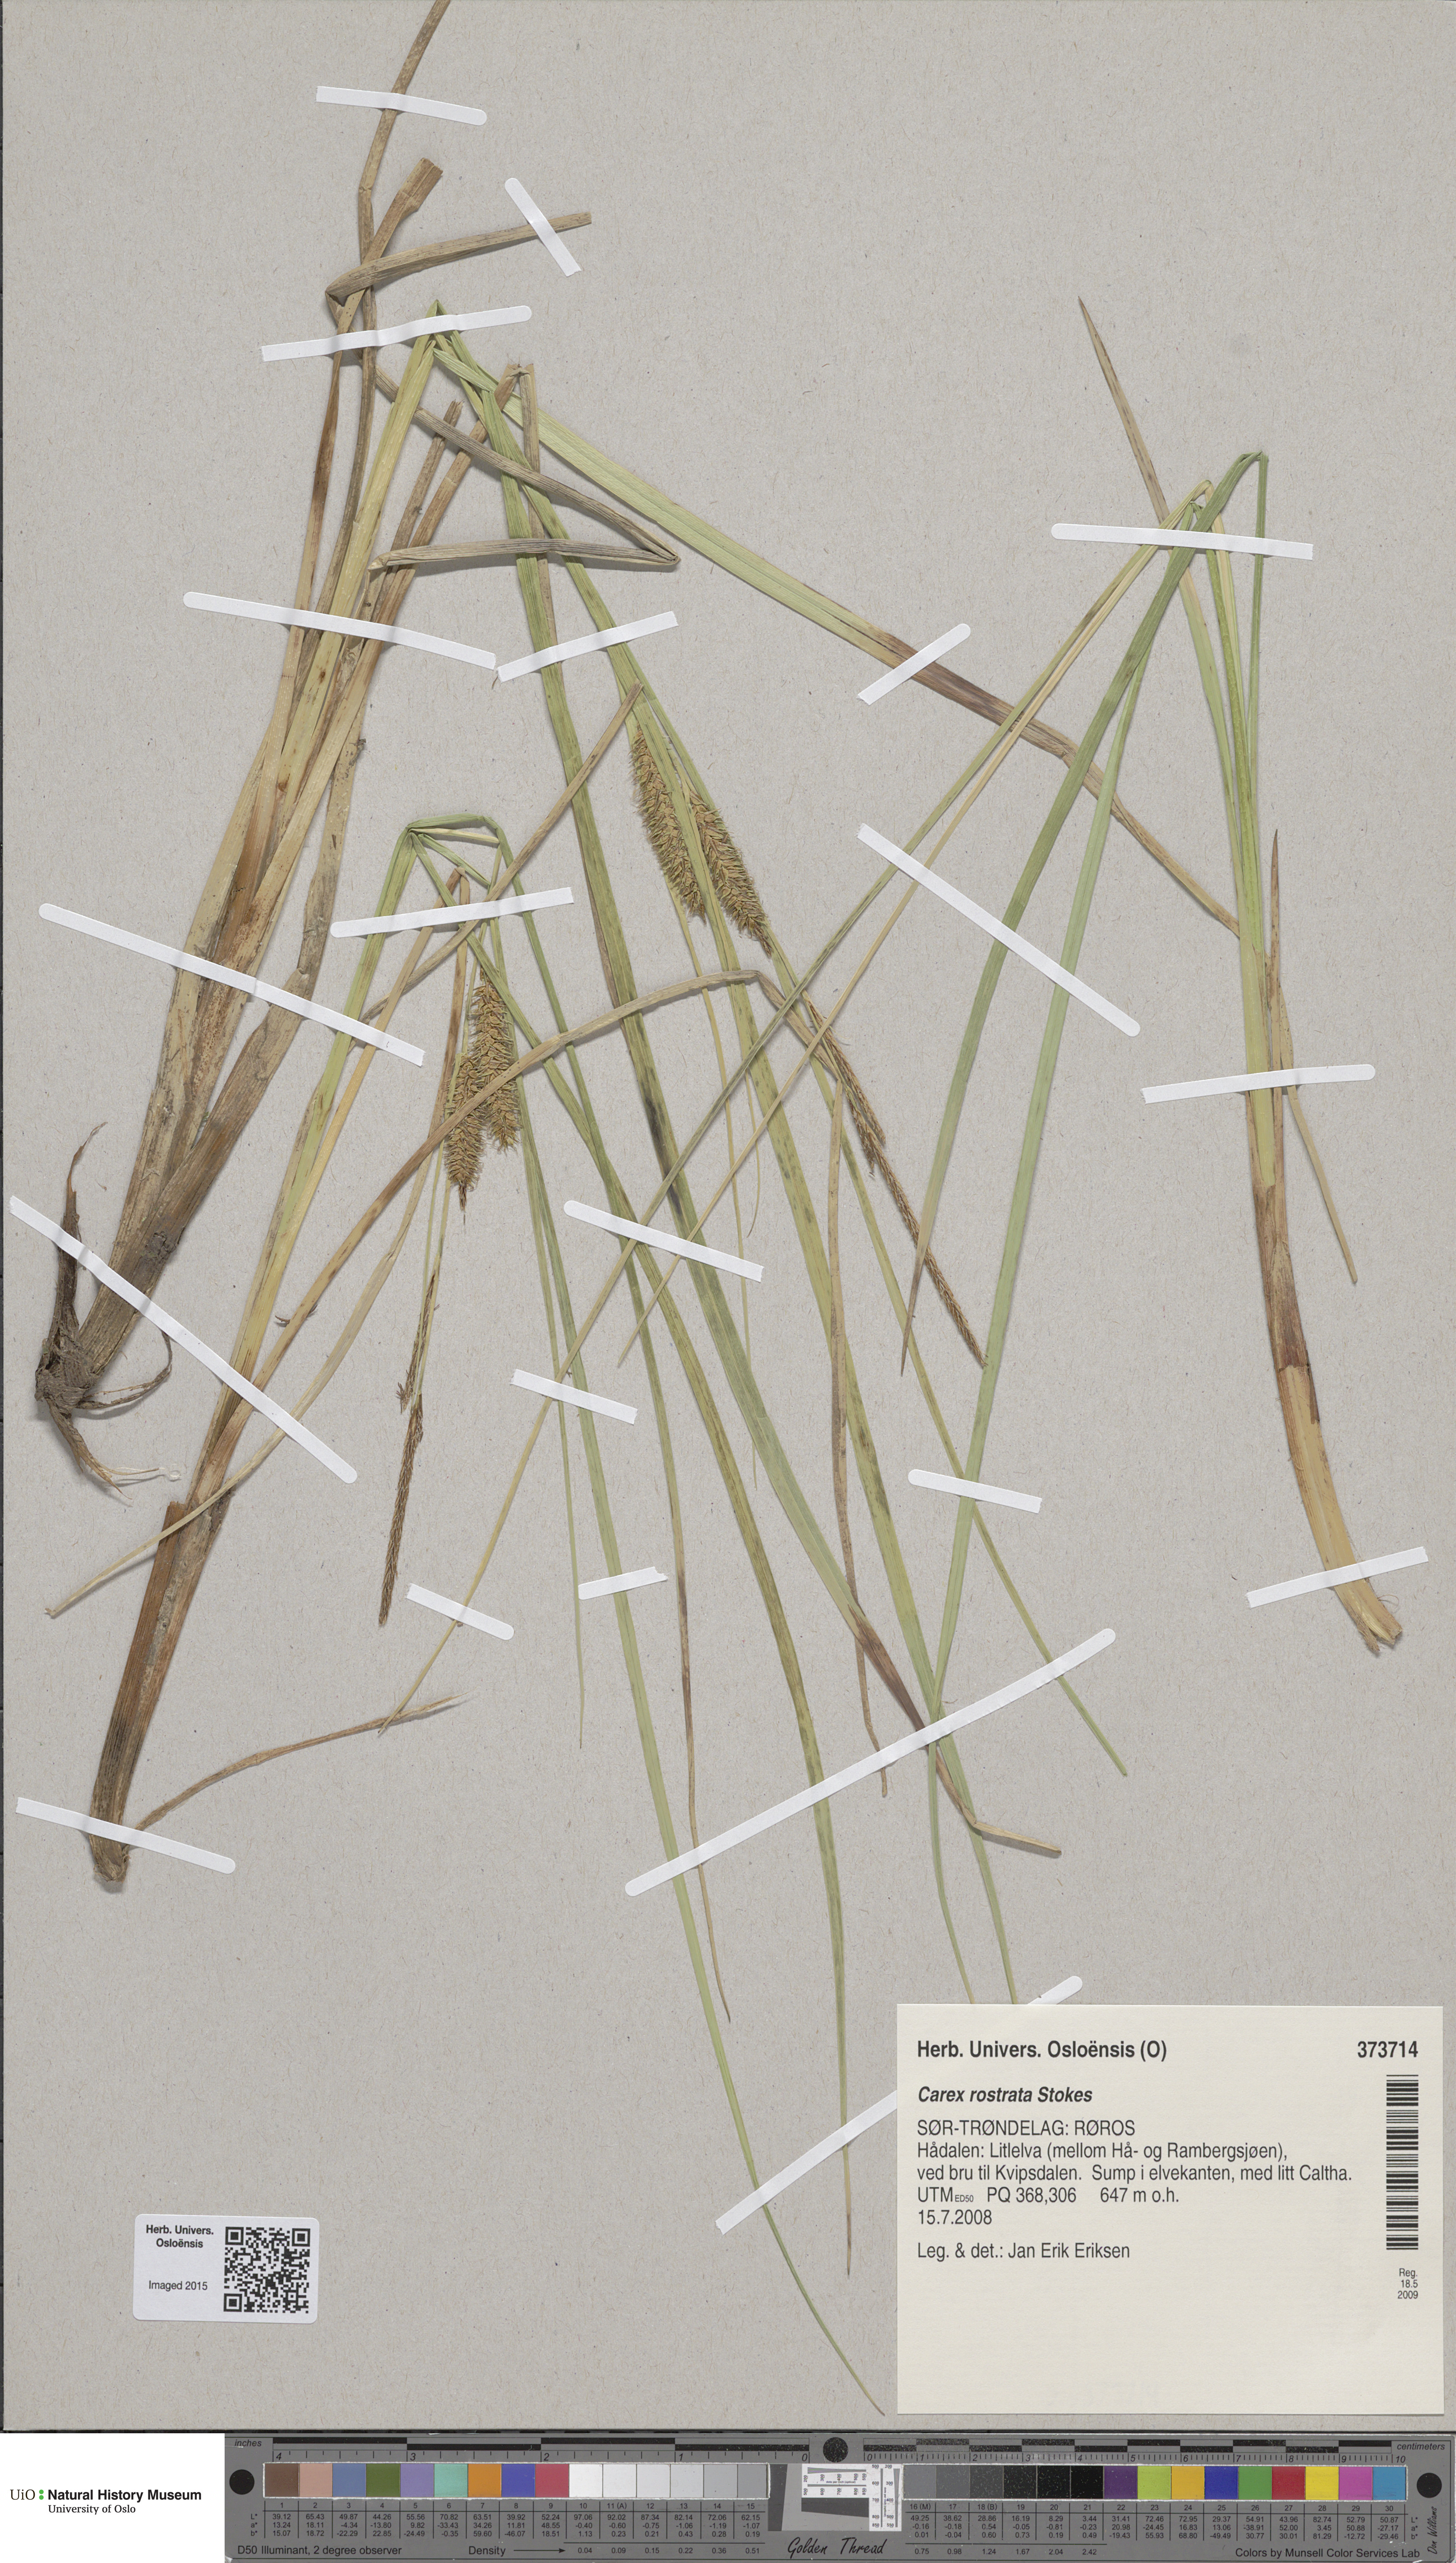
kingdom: Plantae
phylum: Tracheophyta
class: Liliopsida
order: Poales
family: Cyperaceae
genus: Carex
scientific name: Carex rostrata
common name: Bottle sedge
